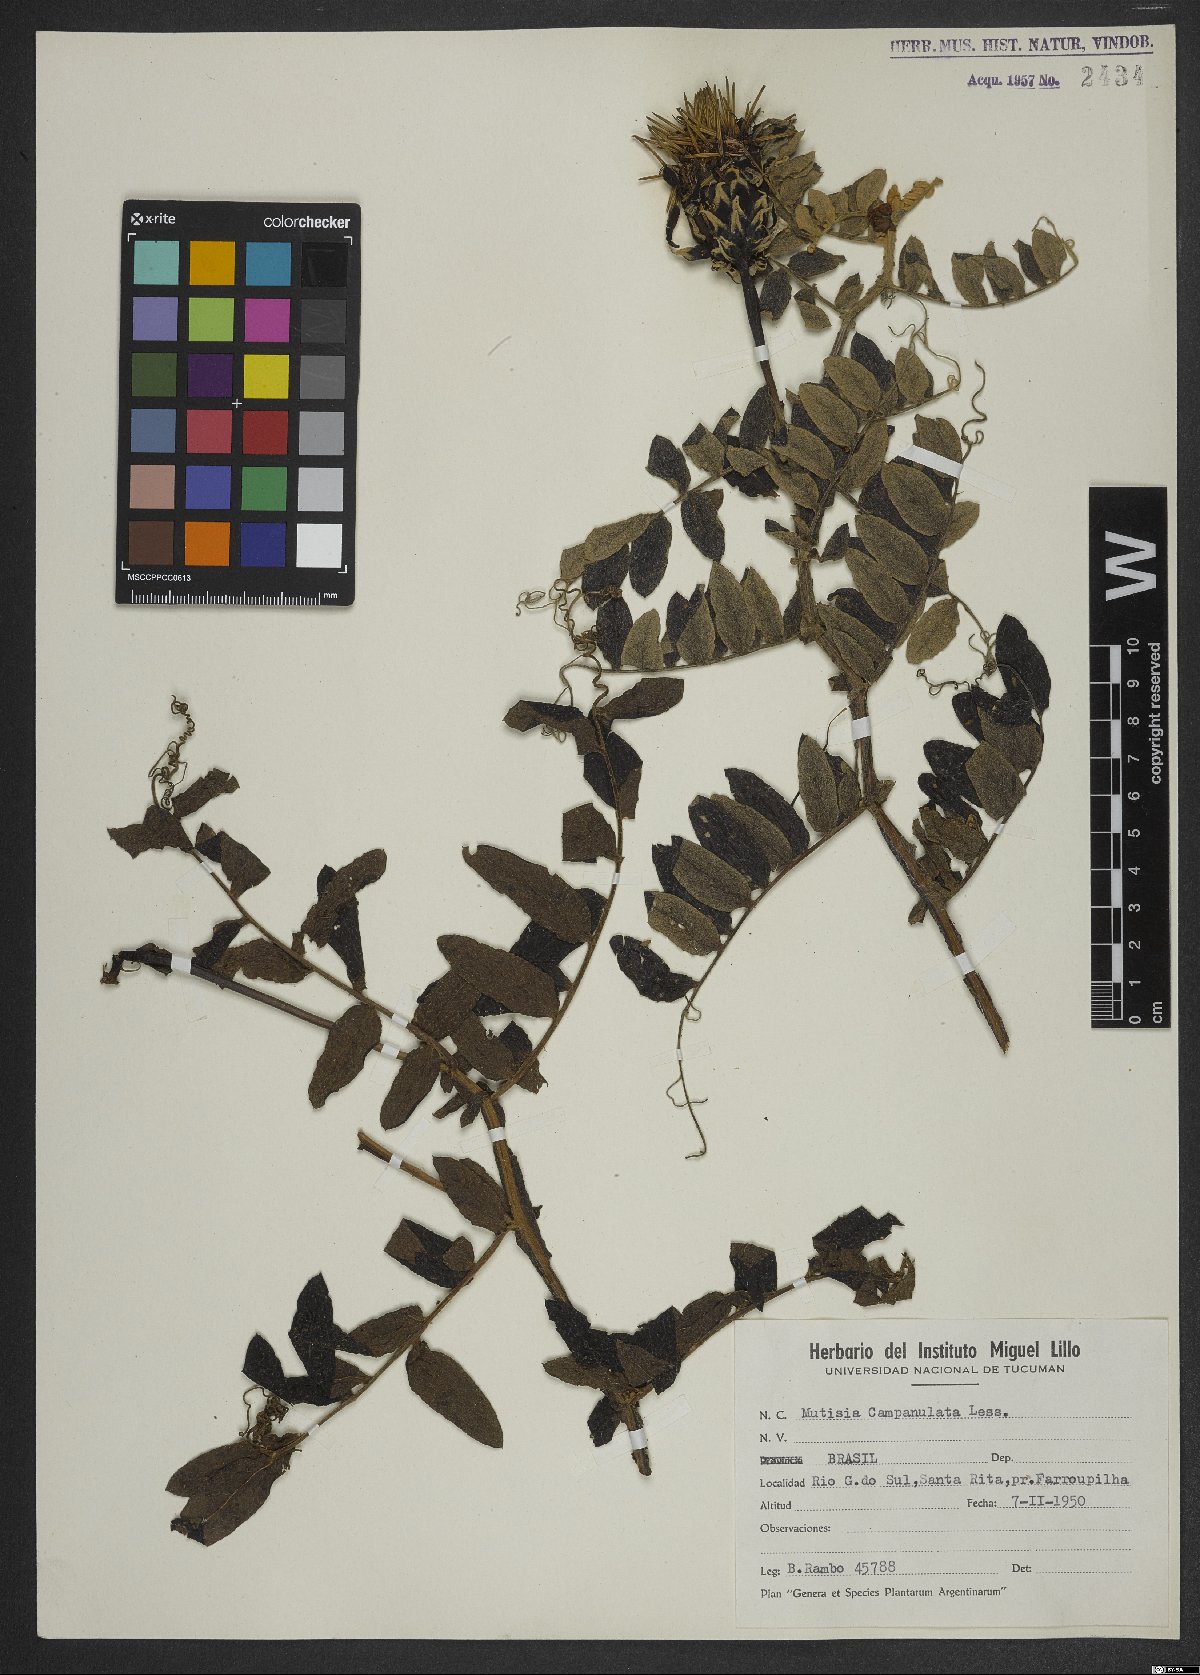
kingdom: Plantae
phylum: Tracheophyta
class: Magnoliopsida
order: Asterales
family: Asteraceae
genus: Mutisia
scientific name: Mutisia campanulata
